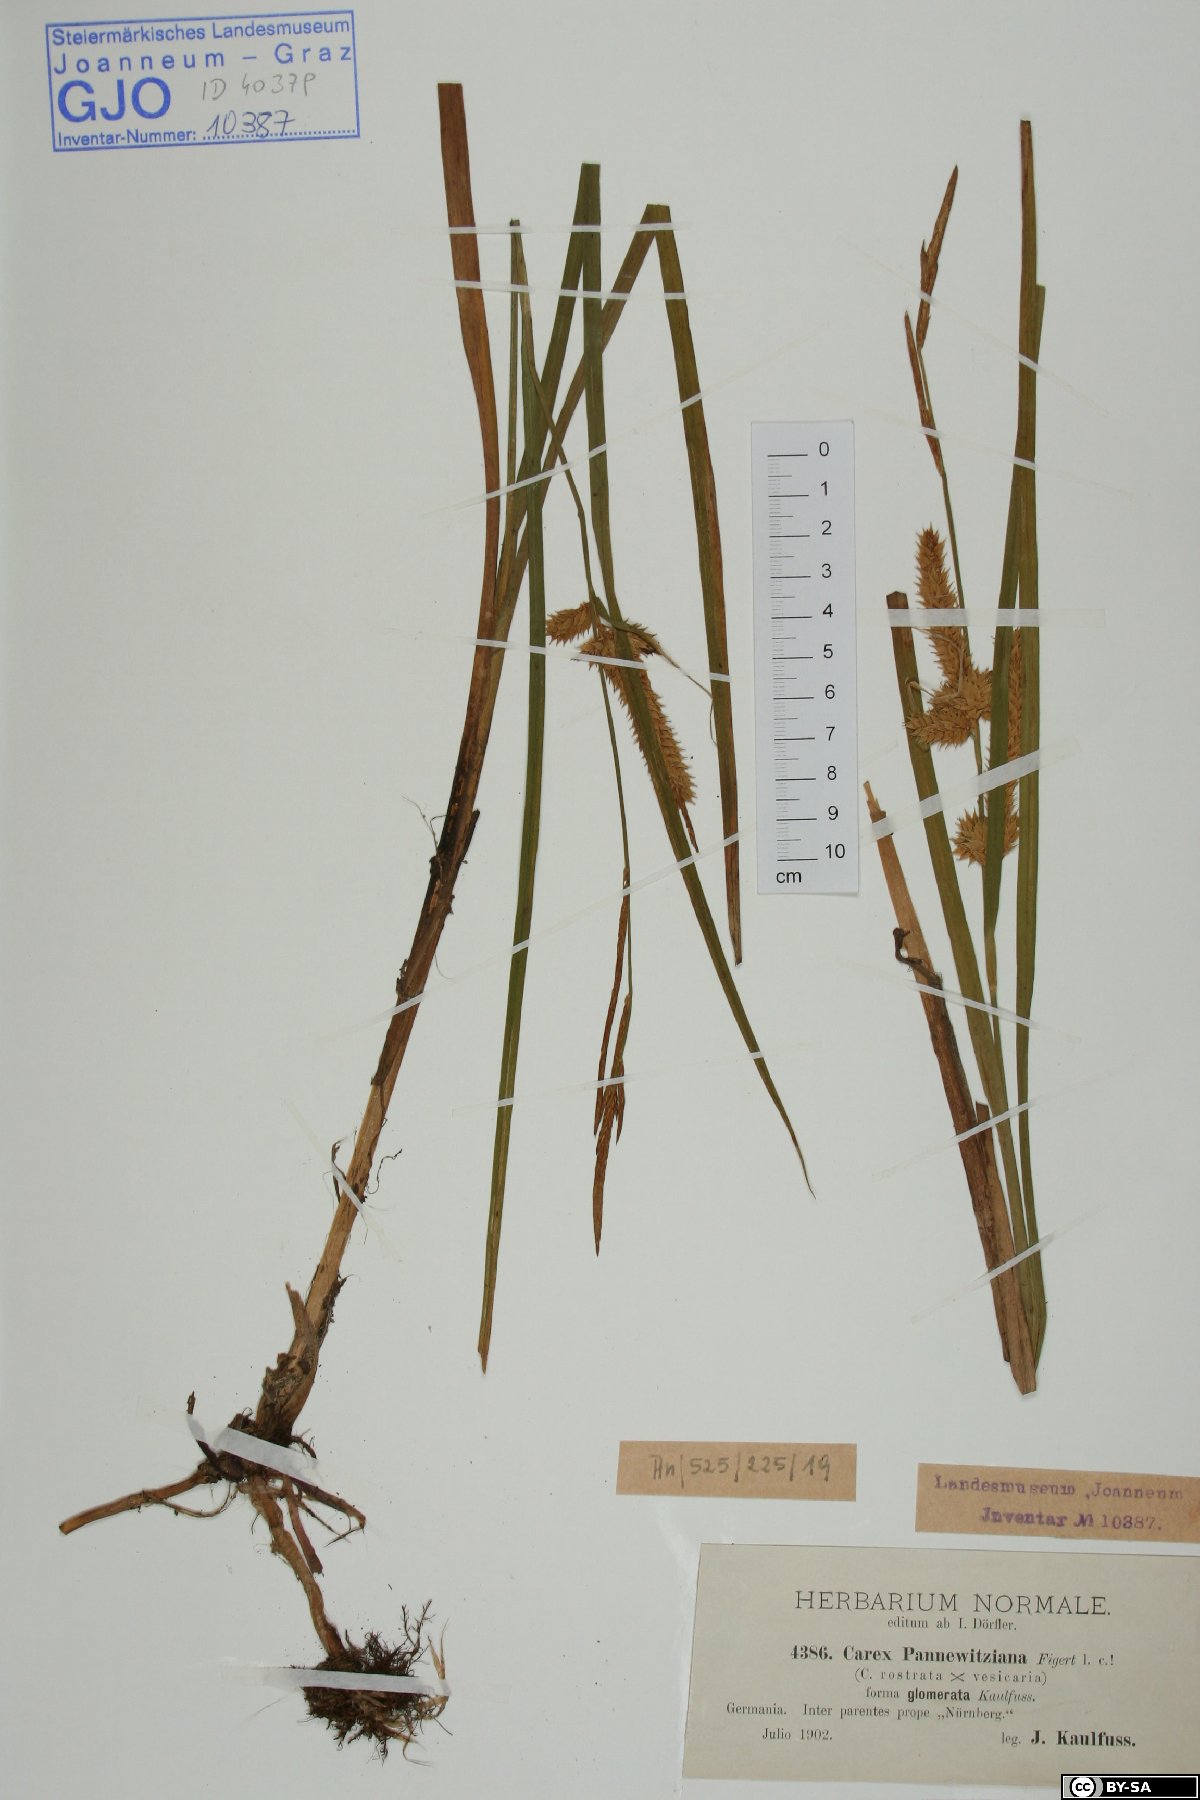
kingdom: Plantae
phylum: Tracheophyta
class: Liliopsida
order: Poales
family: Cyperaceae
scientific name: Cyperaceae
